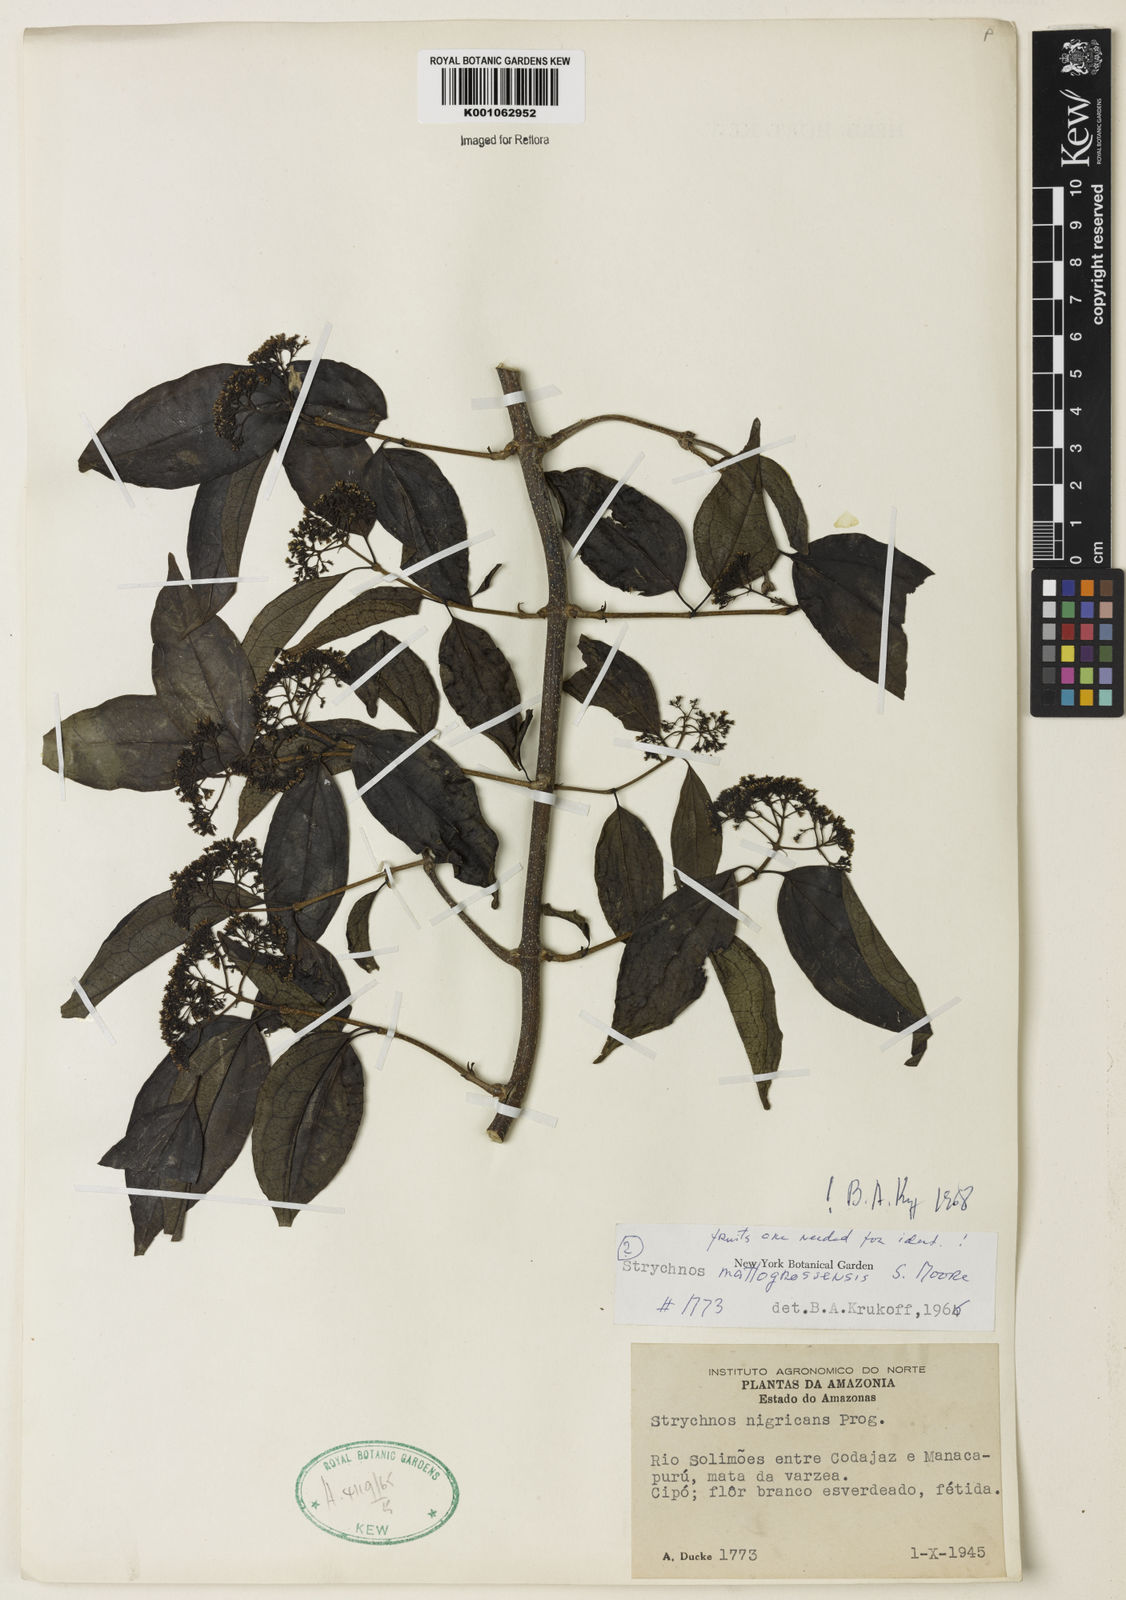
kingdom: Plantae
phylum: Tracheophyta
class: Magnoliopsida
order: Gentianales
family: Loganiaceae
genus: Strychnos
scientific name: Strychnos mattogrossensis
